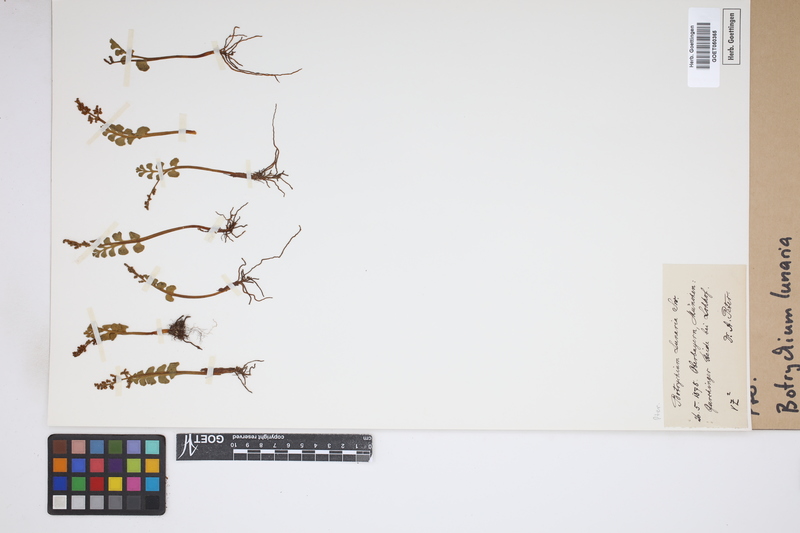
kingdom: Plantae
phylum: Tracheophyta
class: Polypodiopsida
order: Ophioglossales
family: Ophioglossaceae
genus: Botrychium
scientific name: Botrychium lunaria
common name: Moonwort
